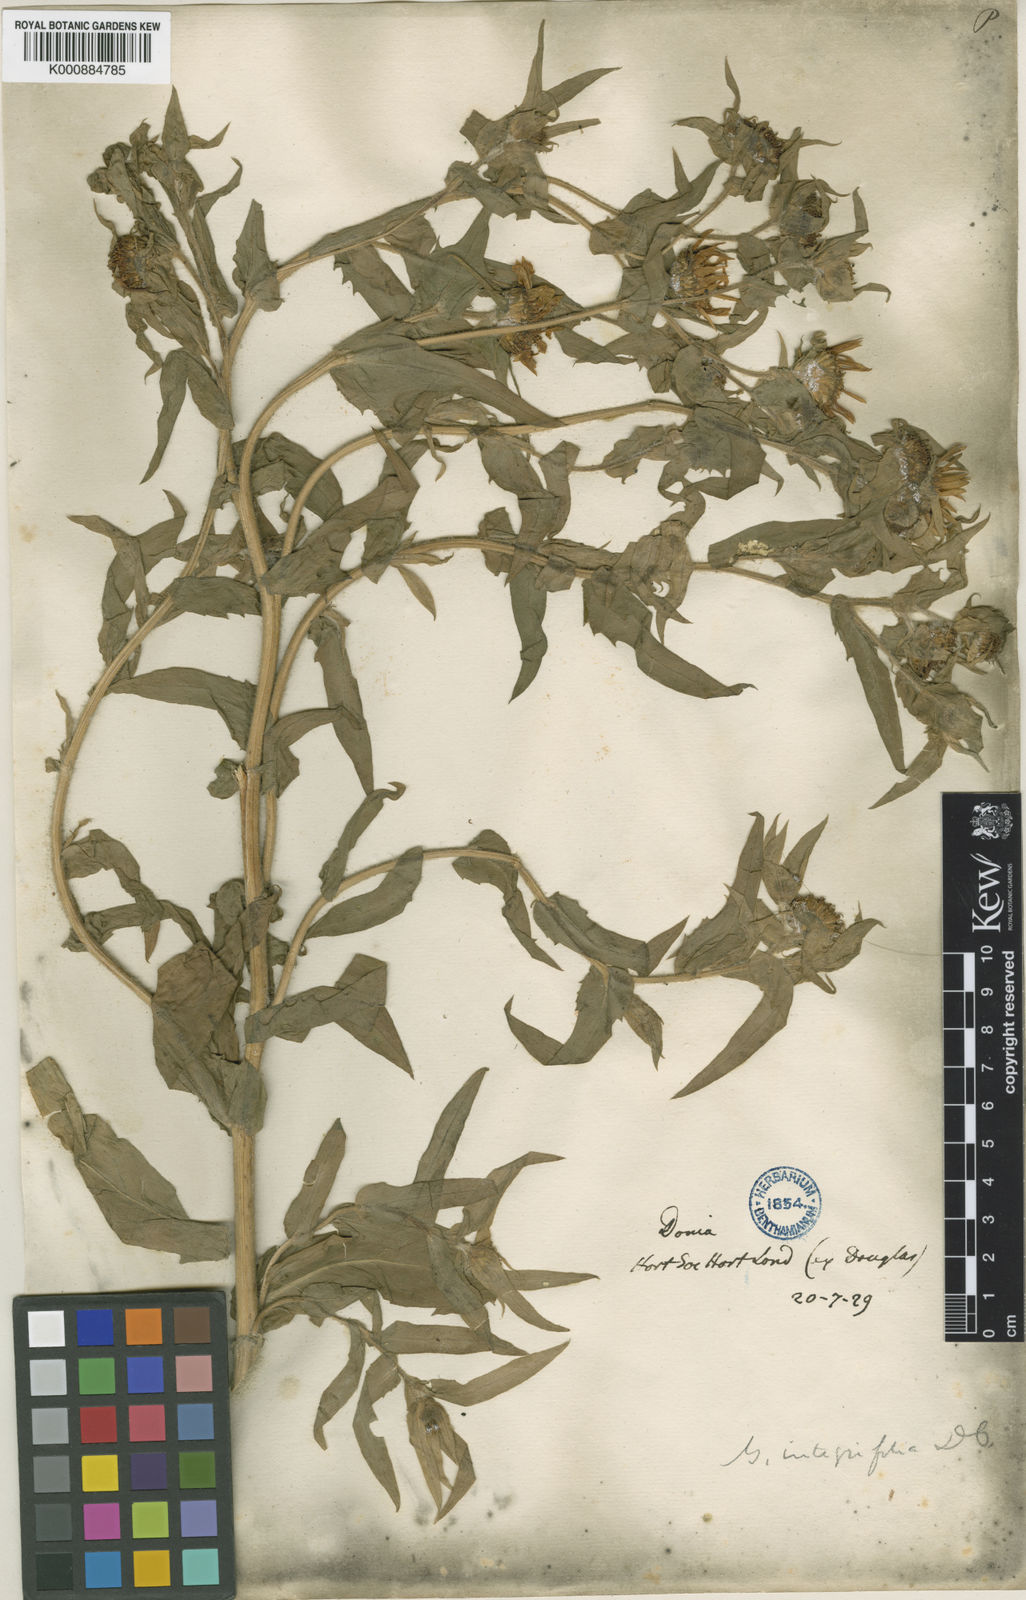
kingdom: Plantae
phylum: Tracheophyta
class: Magnoliopsida
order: Asterales
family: Asteraceae
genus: Grindelia
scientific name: Grindelia integrifolia
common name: Puget sound gumweed
